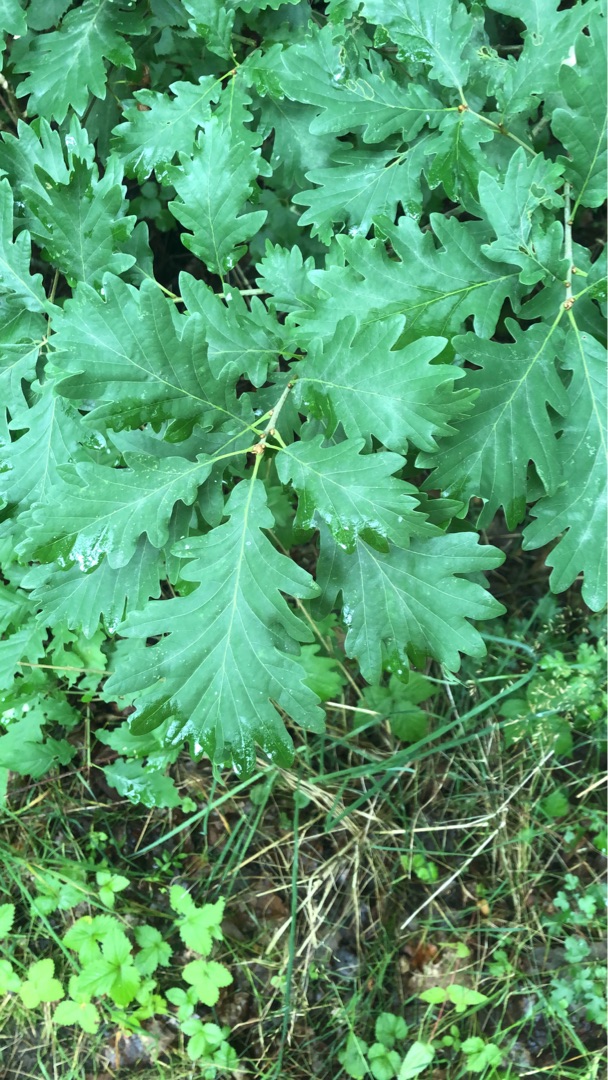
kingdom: Plantae
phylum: Tracheophyta
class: Magnoliopsida
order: Fagales
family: Fagaceae
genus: Quercus
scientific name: Quercus petraea
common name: Vinter-eg
